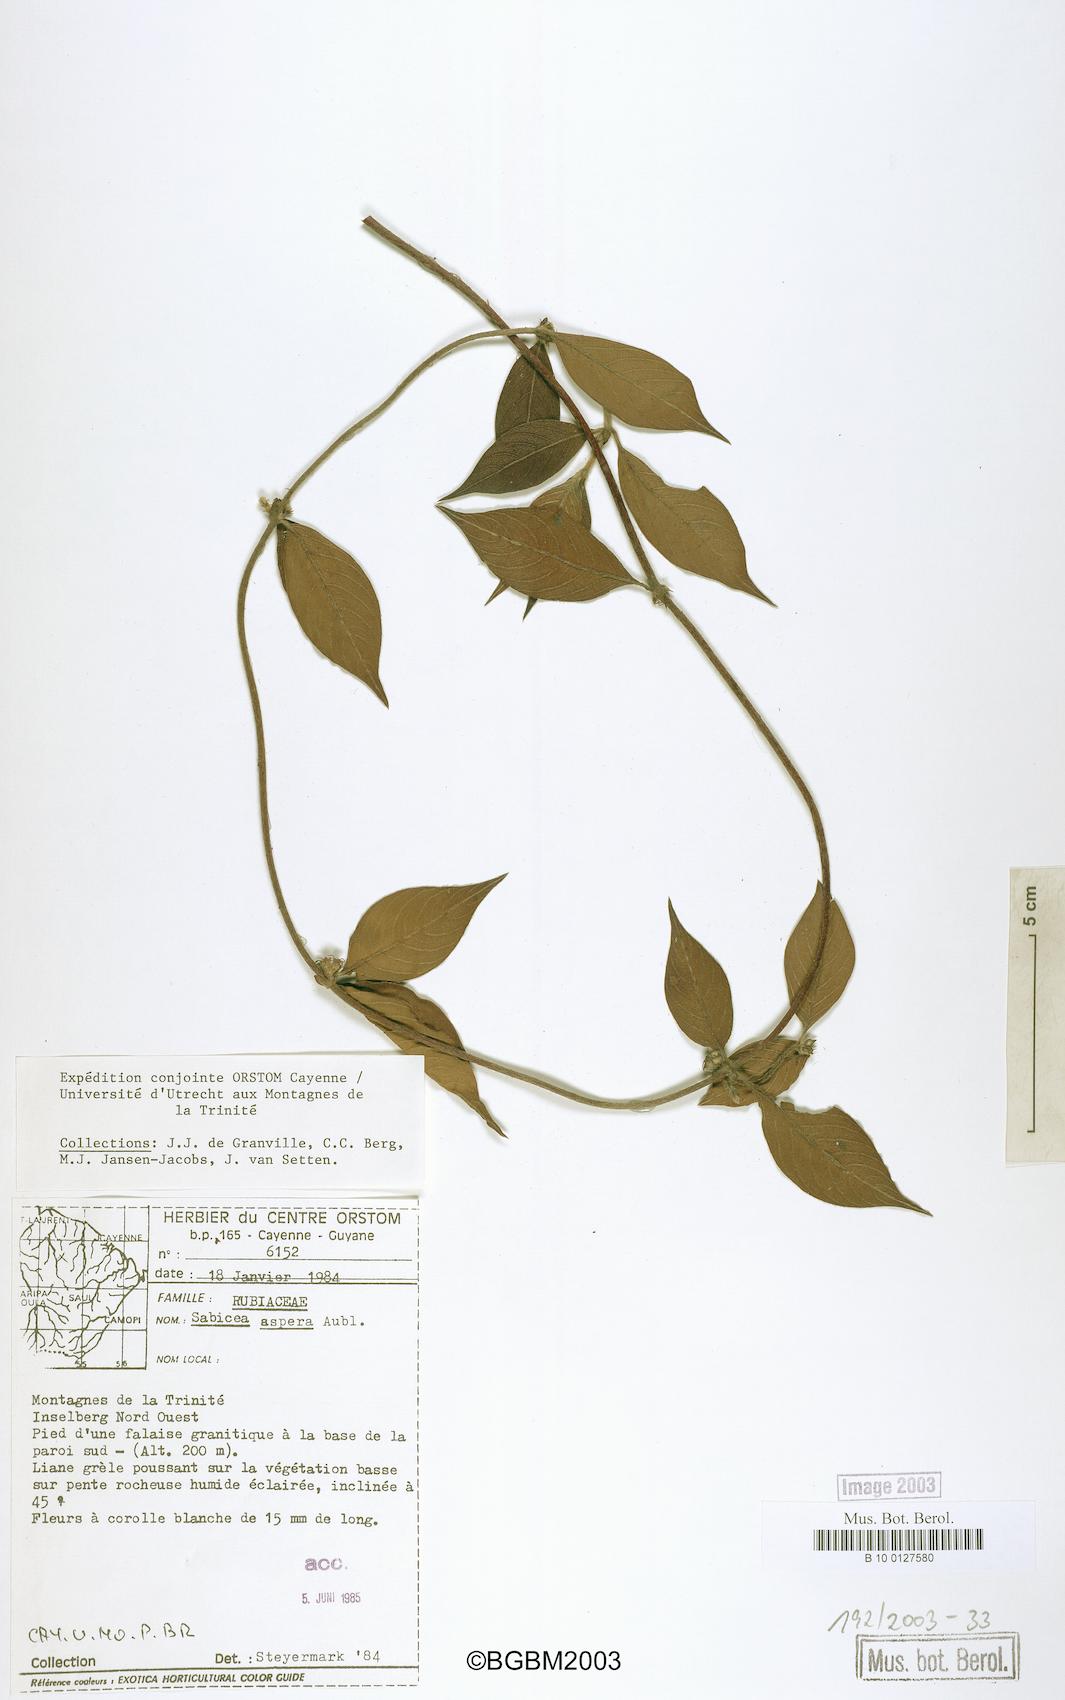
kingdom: Plantae
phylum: Tracheophyta
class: Magnoliopsida
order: Gentianales
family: Rubiaceae
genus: Sabicea
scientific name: Sabicea aspera
